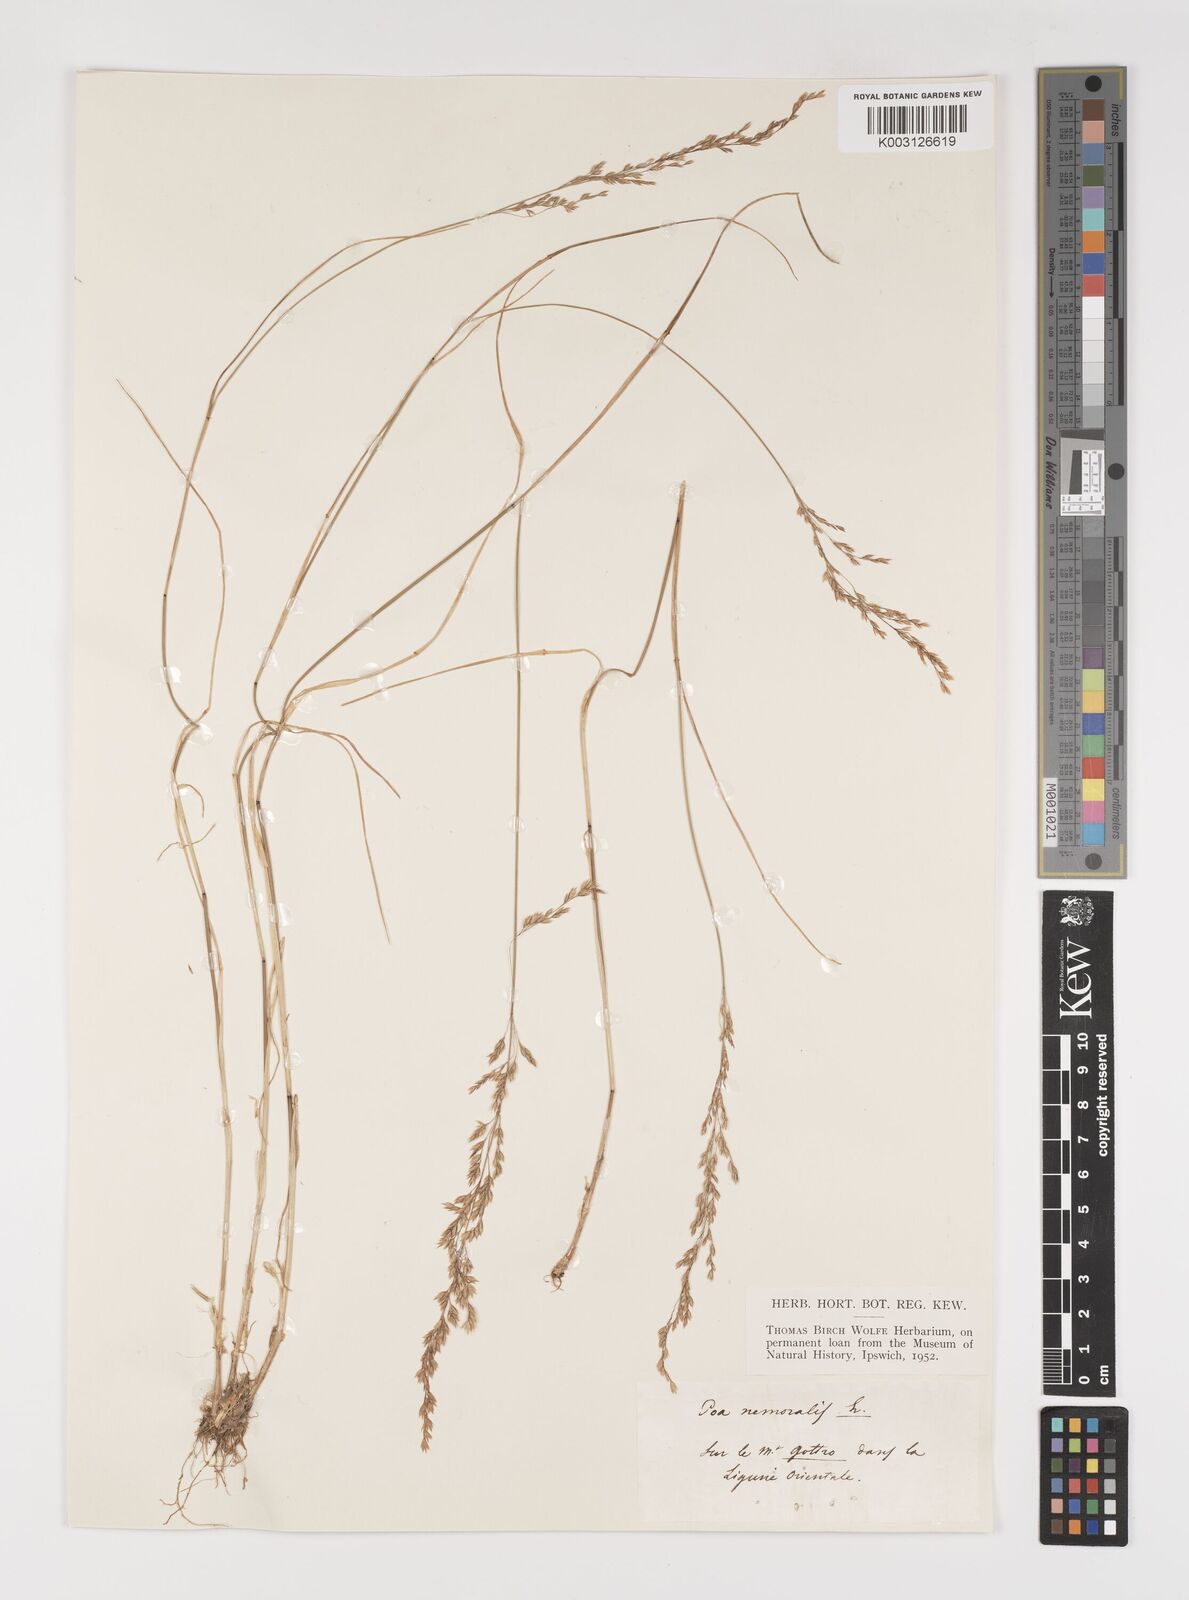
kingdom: Plantae
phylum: Tracheophyta
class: Liliopsida
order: Poales
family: Poaceae
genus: Poa
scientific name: Poa nemoralis
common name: Wood bluegrass
